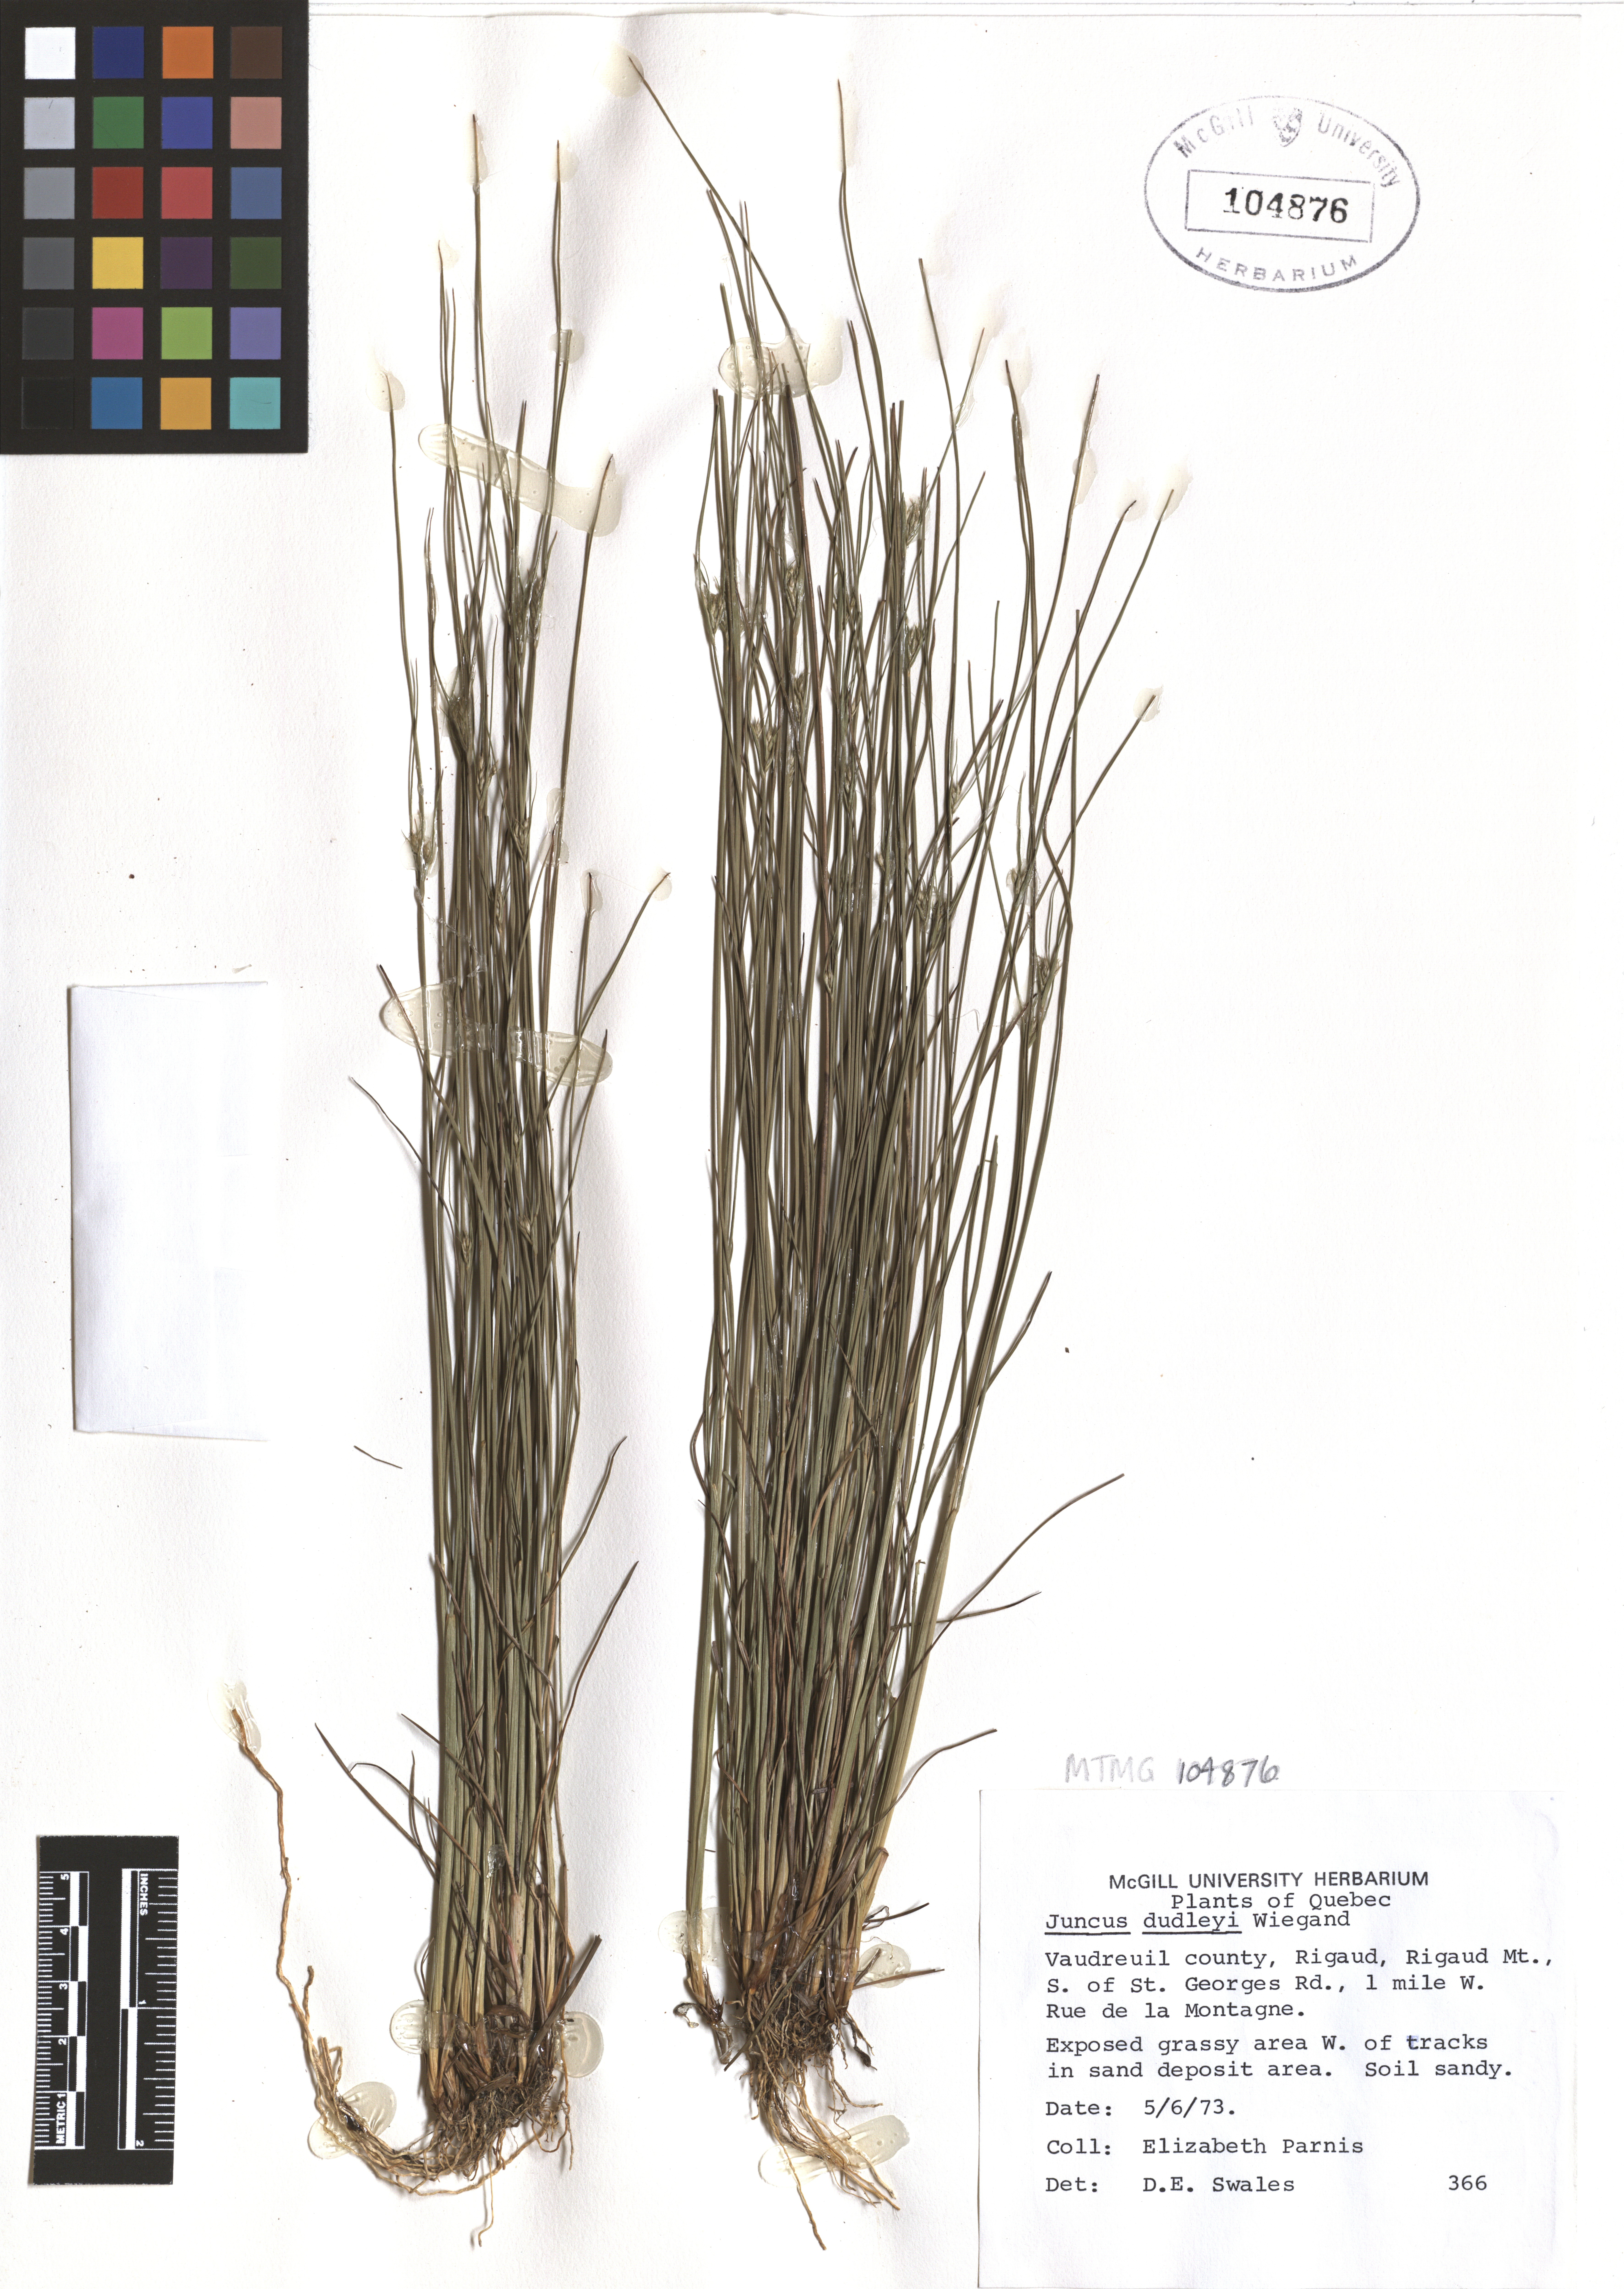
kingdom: Plantae
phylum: Tracheophyta
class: Liliopsida
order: Poales
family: Juncaceae
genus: Juncus
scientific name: Juncus dudleyi
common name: Dudley's rush
